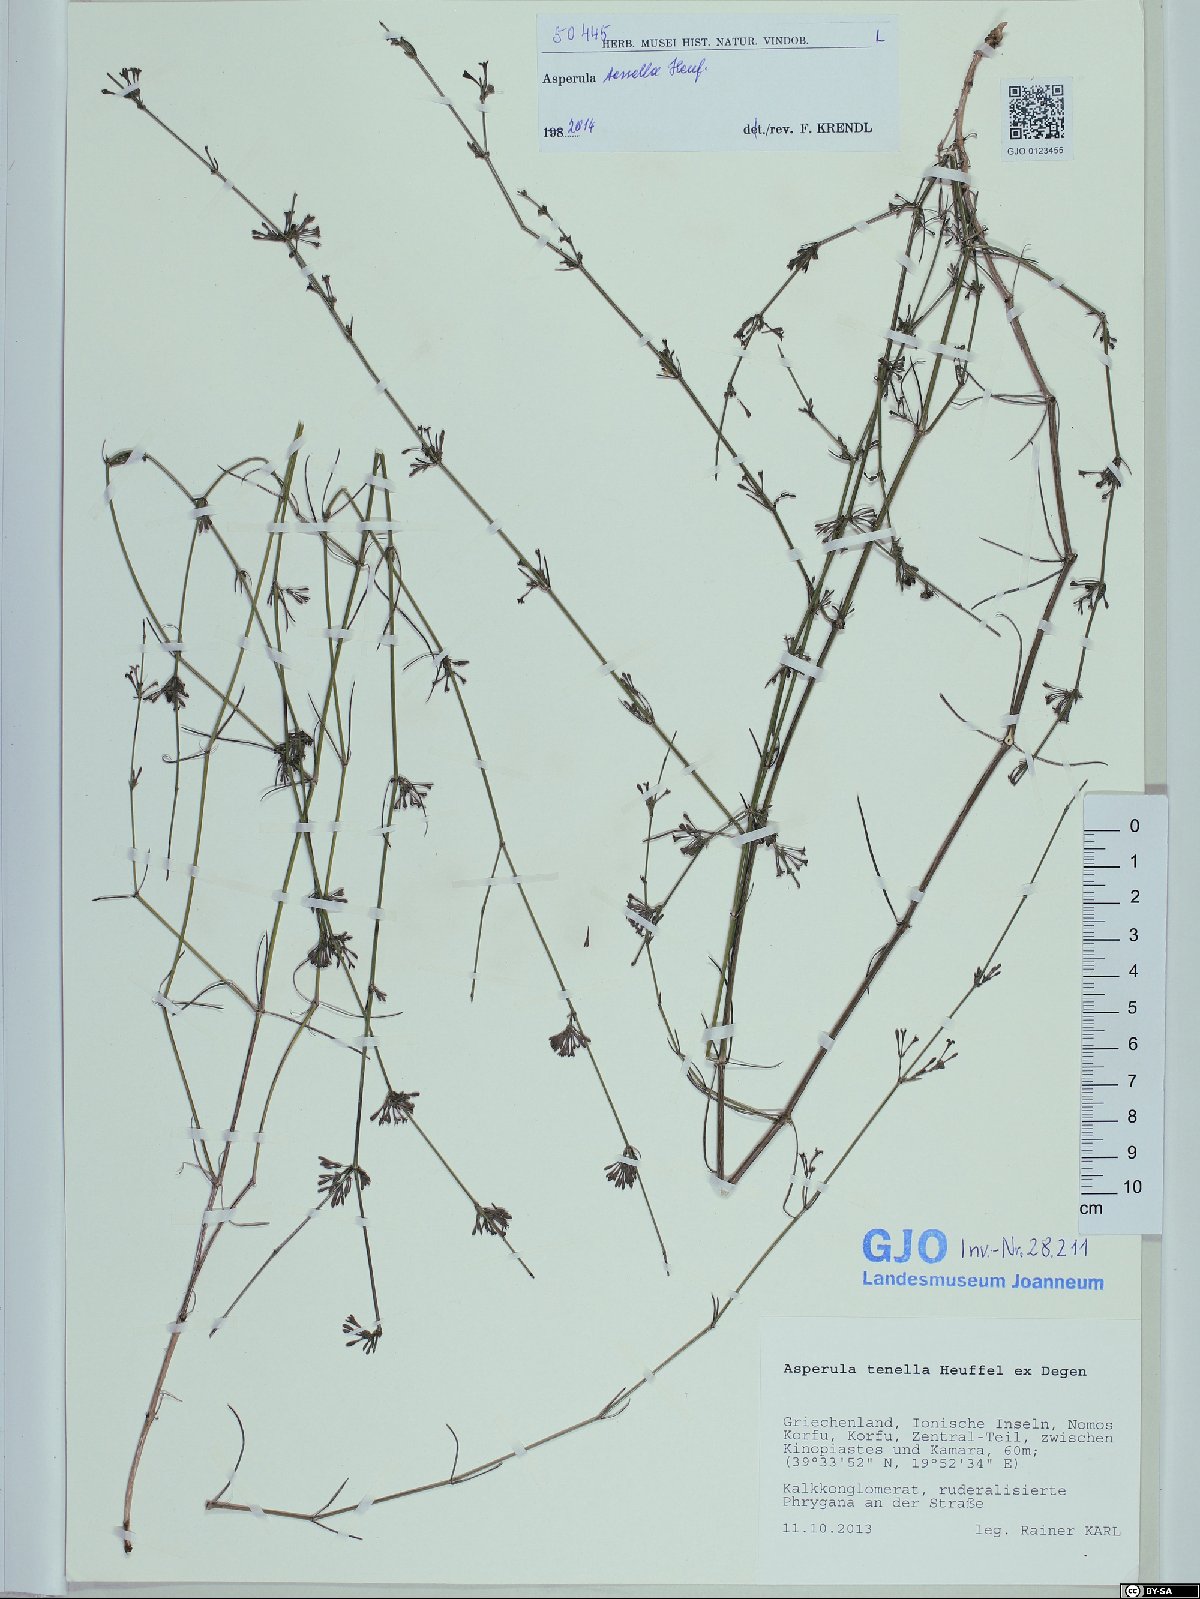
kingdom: Plantae
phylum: Tracheophyta
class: Magnoliopsida
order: Gentianales
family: Rubiaceae
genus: Cynanchica
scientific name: Cynanchica tenella
